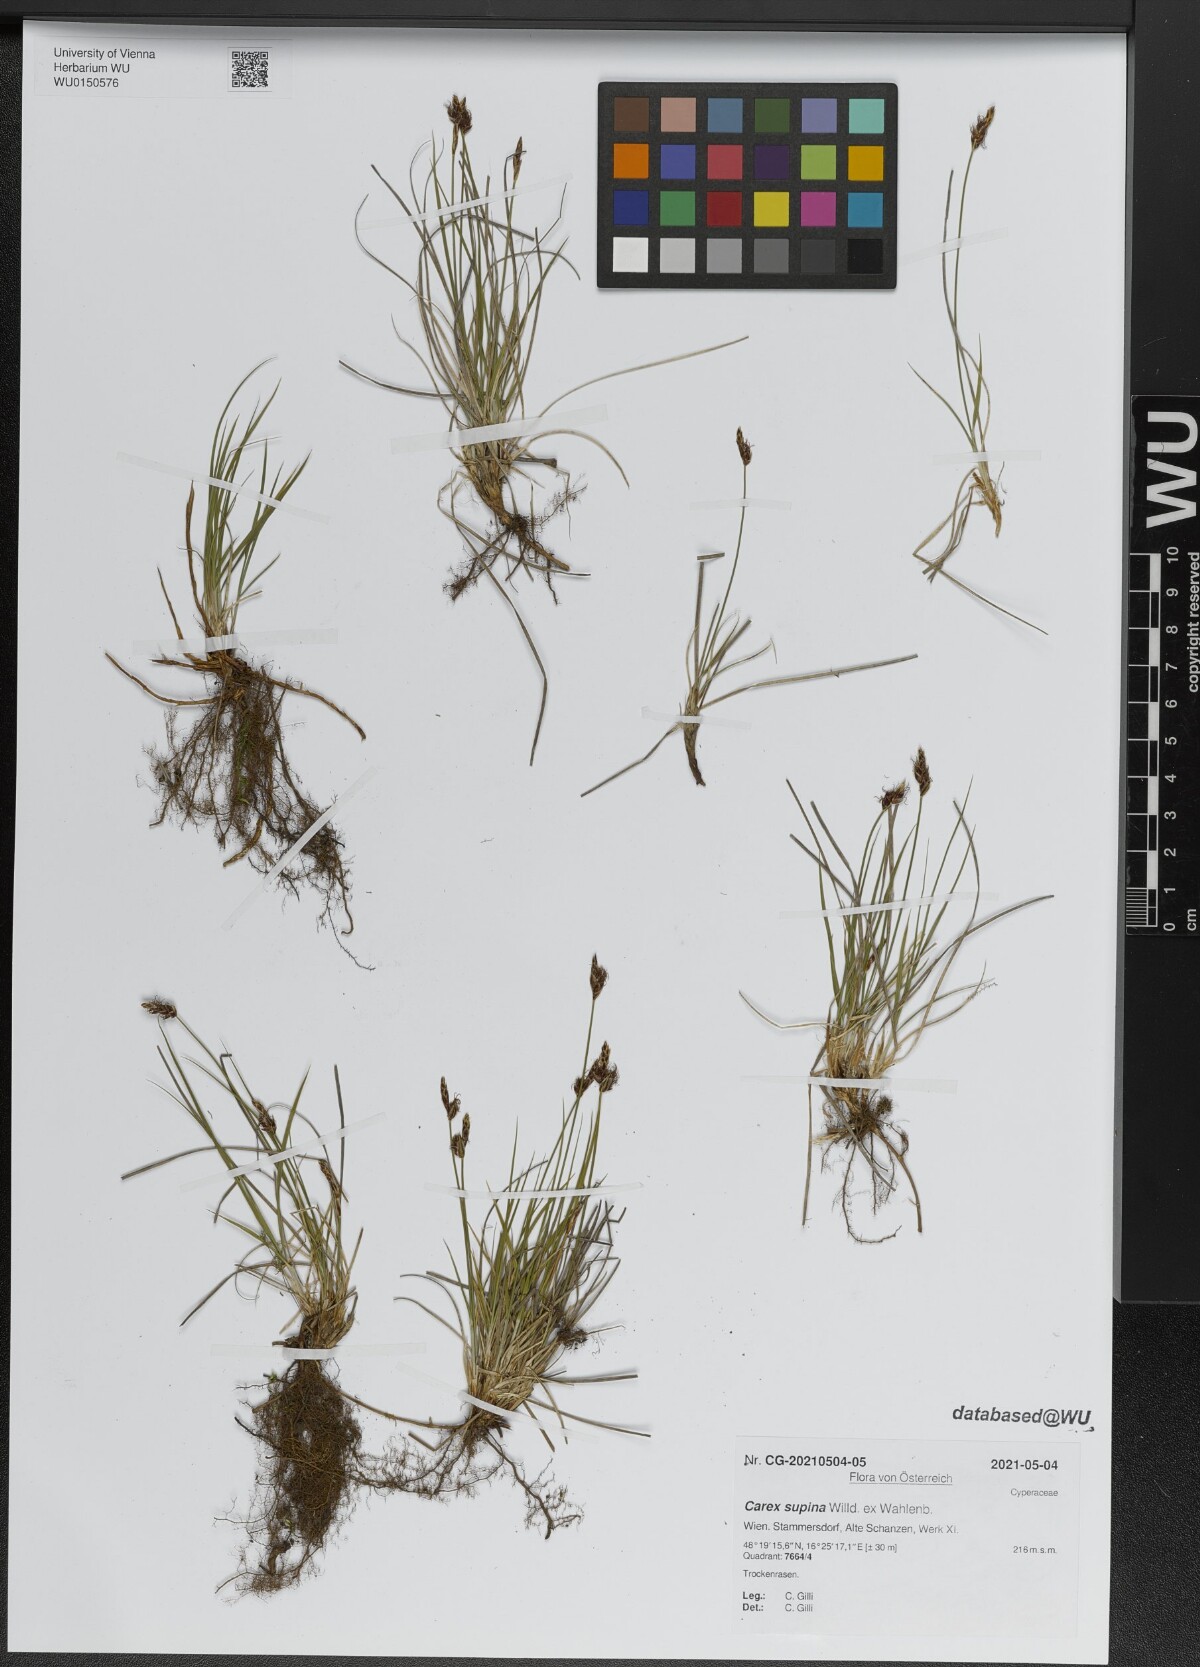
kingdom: Plantae
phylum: Tracheophyta
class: Liliopsida
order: Poales
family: Cyperaceae
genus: Carex
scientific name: Carex supina
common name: Lying-back sedge
